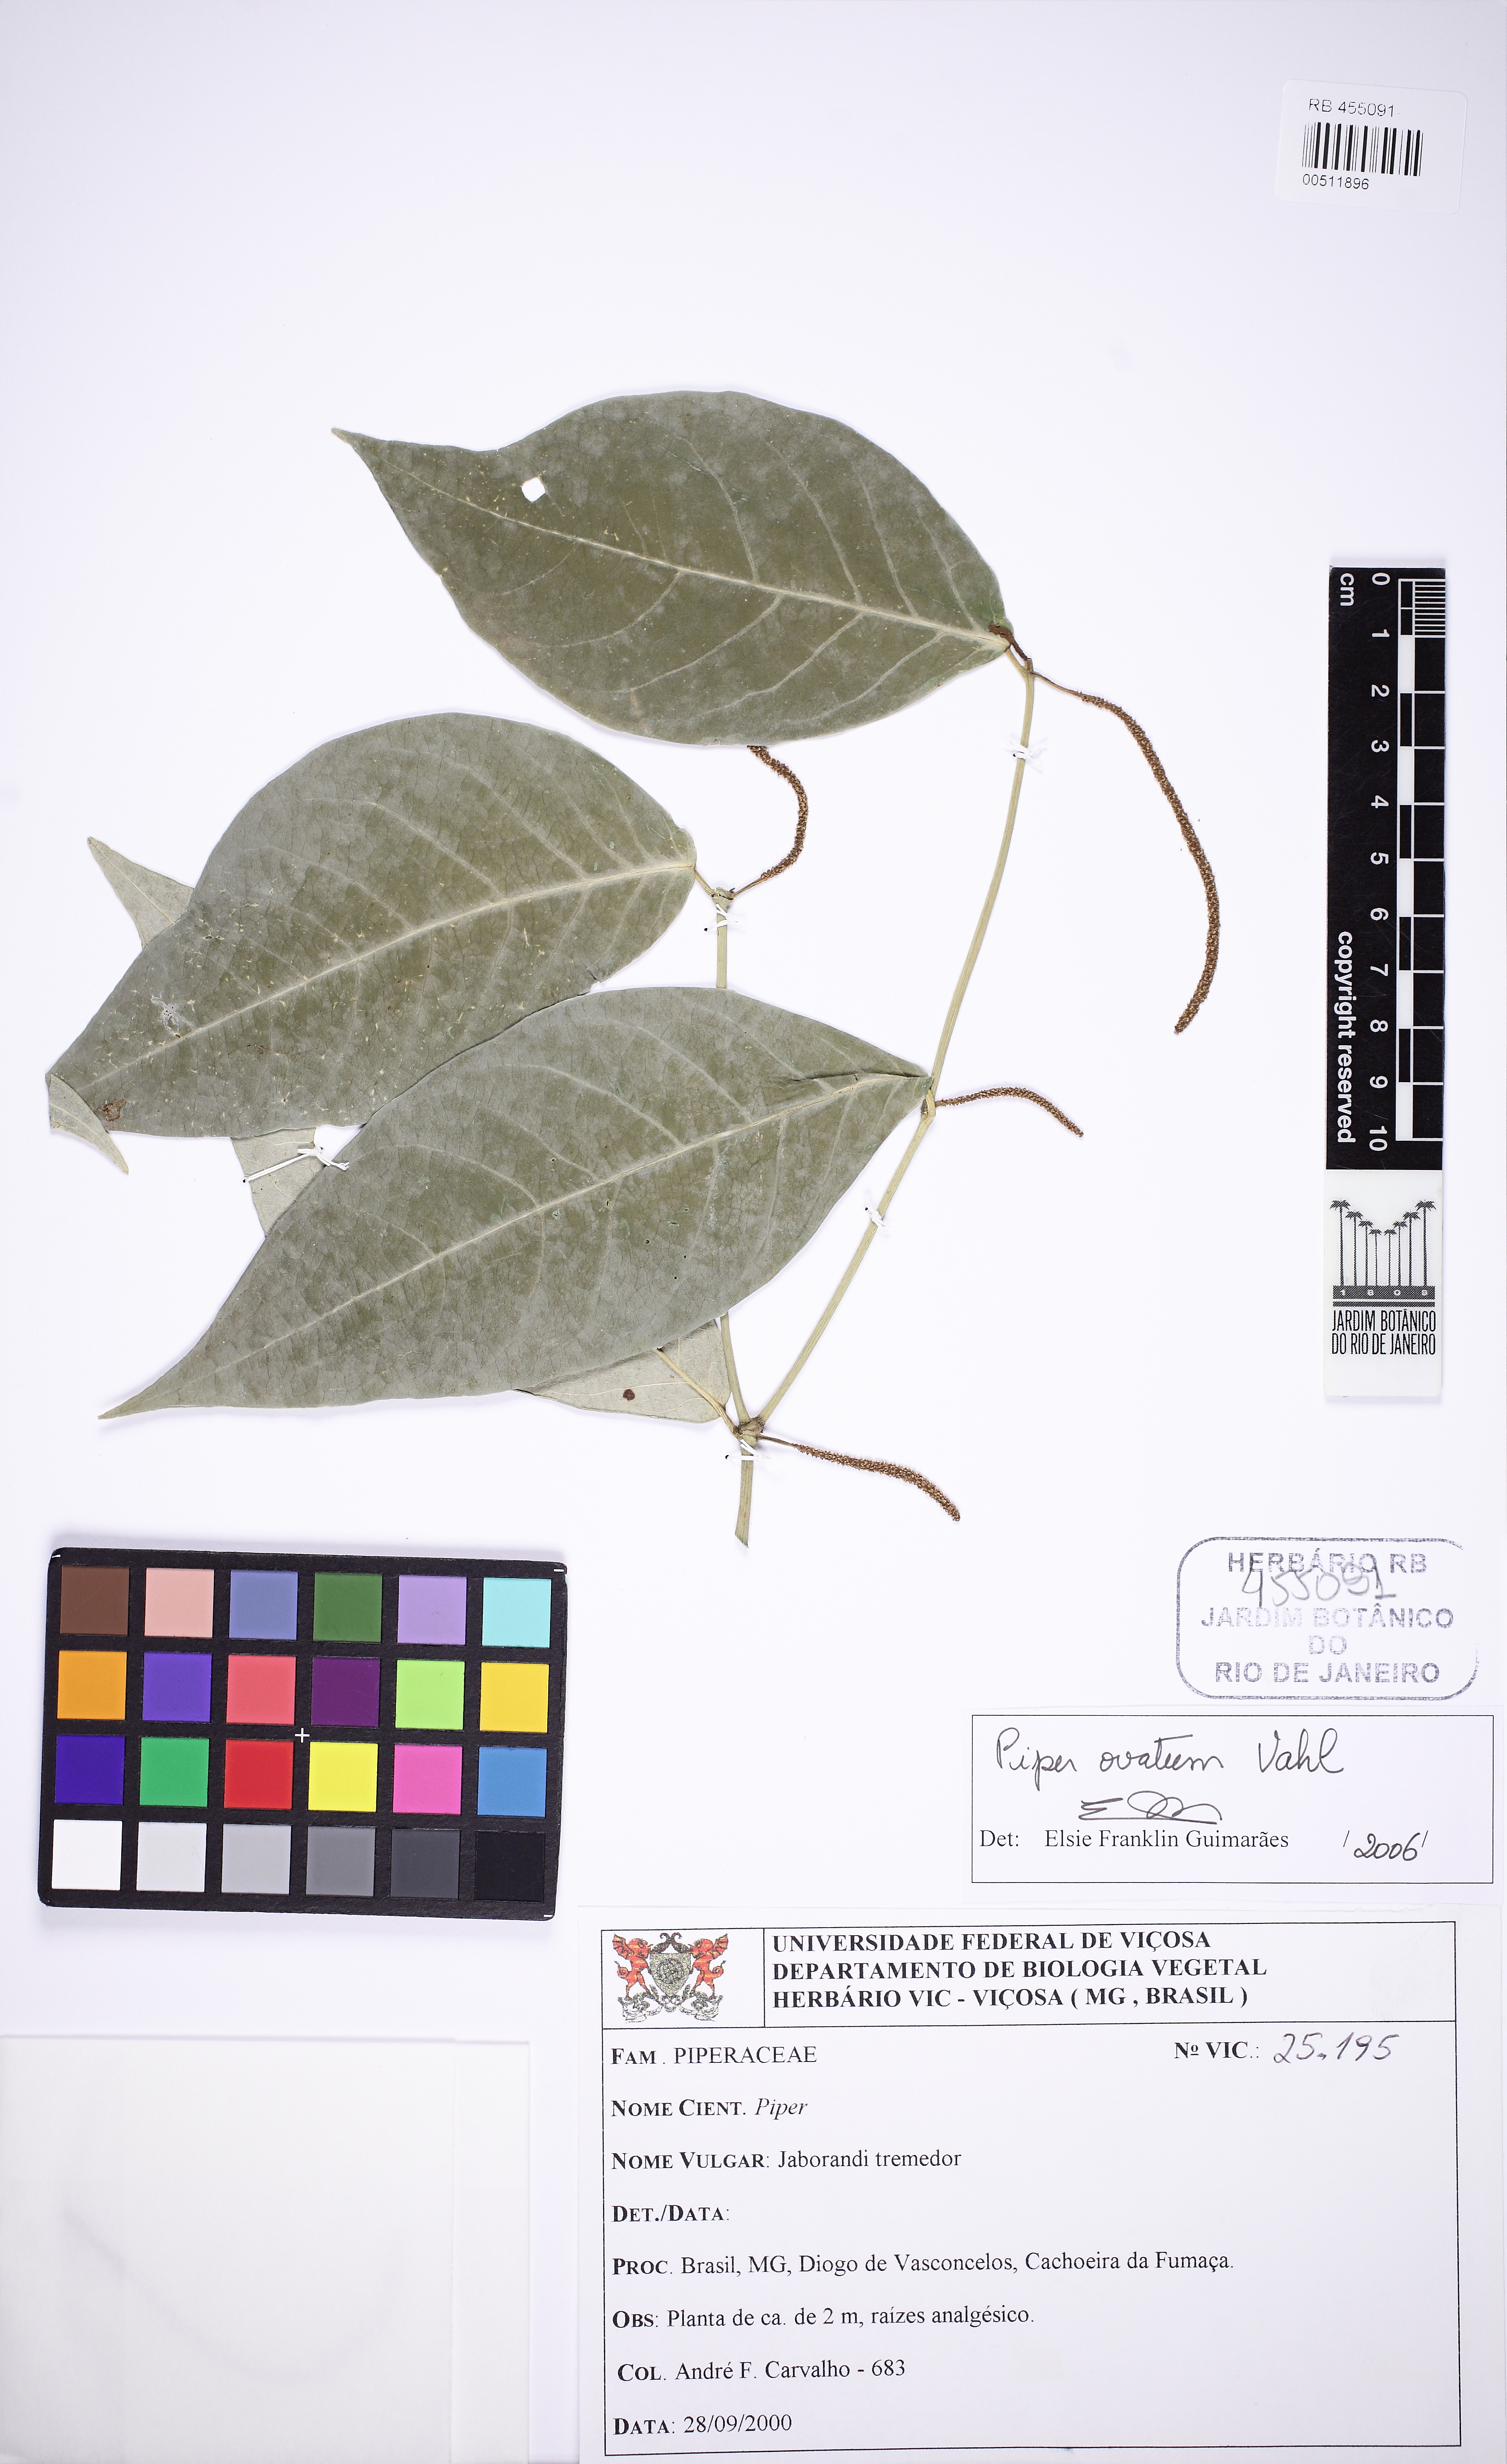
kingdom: Plantae
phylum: Tracheophyta
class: Magnoliopsida
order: Piperales
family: Piperaceae
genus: Piper
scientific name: Piper ovatum
